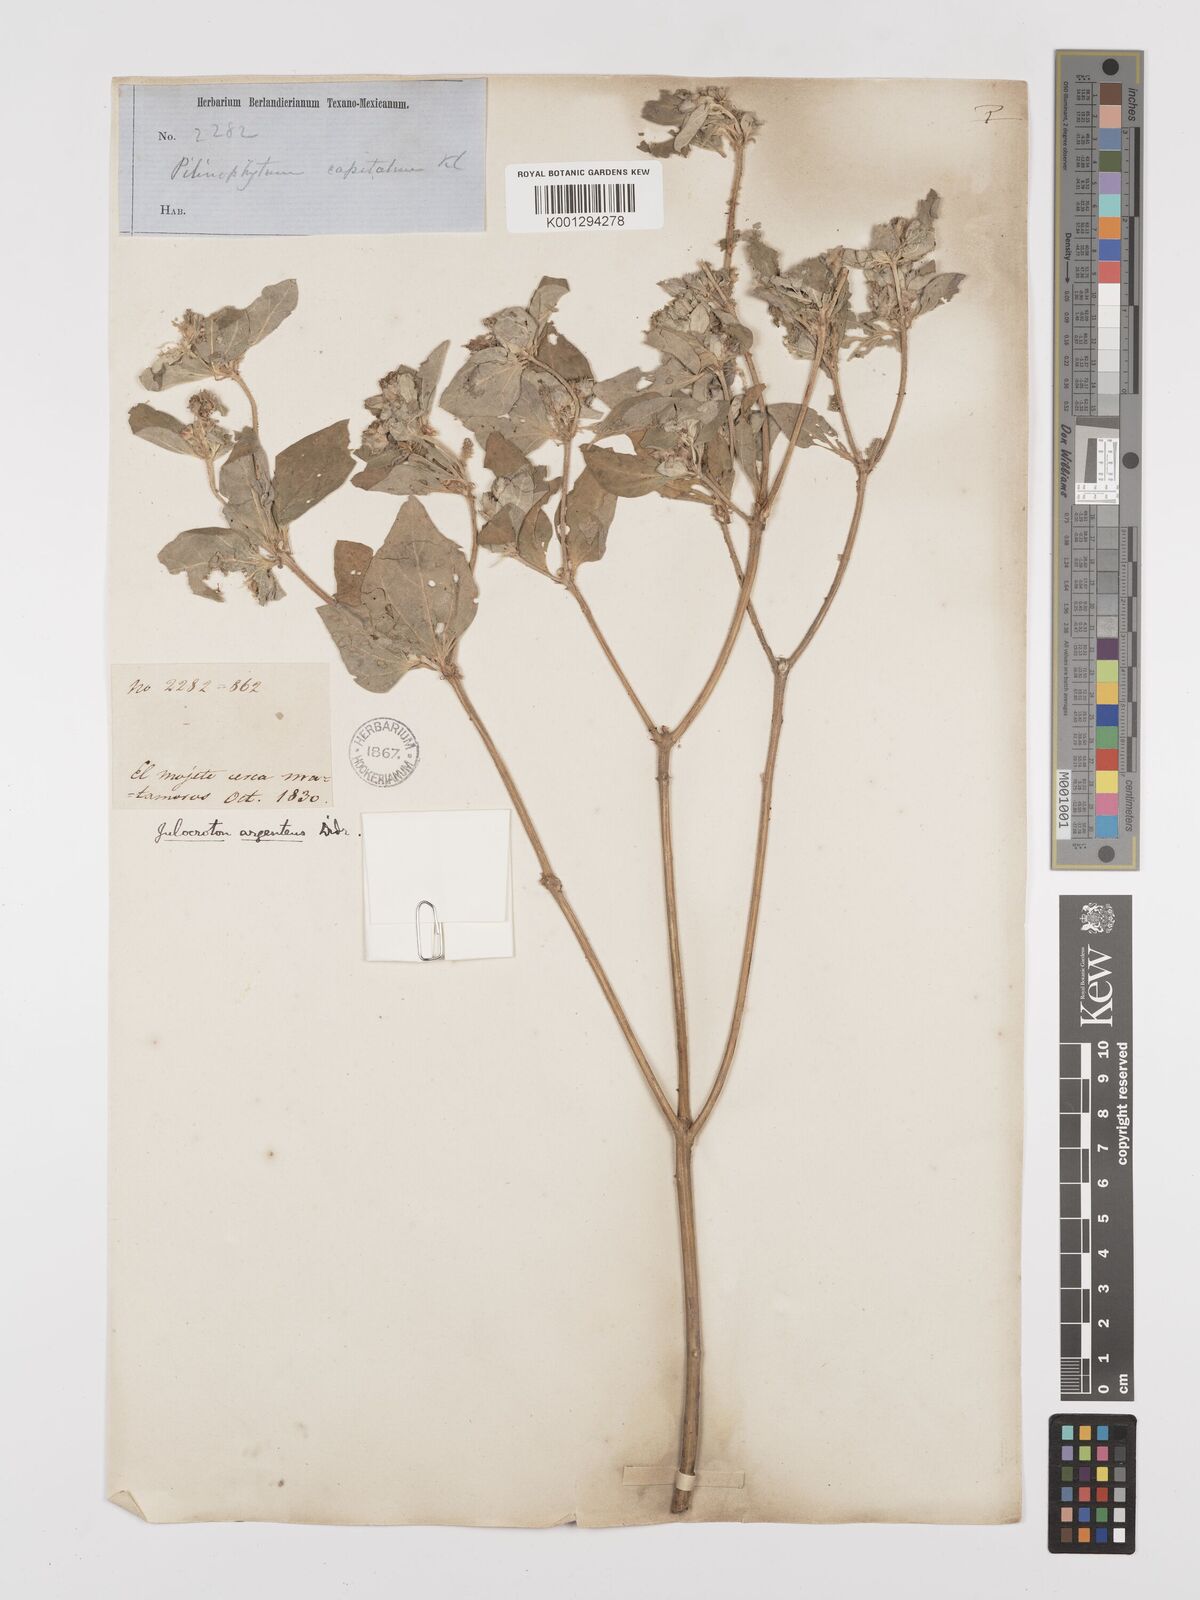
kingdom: Plantae
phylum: Tracheophyta
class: Magnoliopsida
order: Malpighiales
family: Euphorbiaceae
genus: Croton
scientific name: Croton argenteus
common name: Silver july croton
